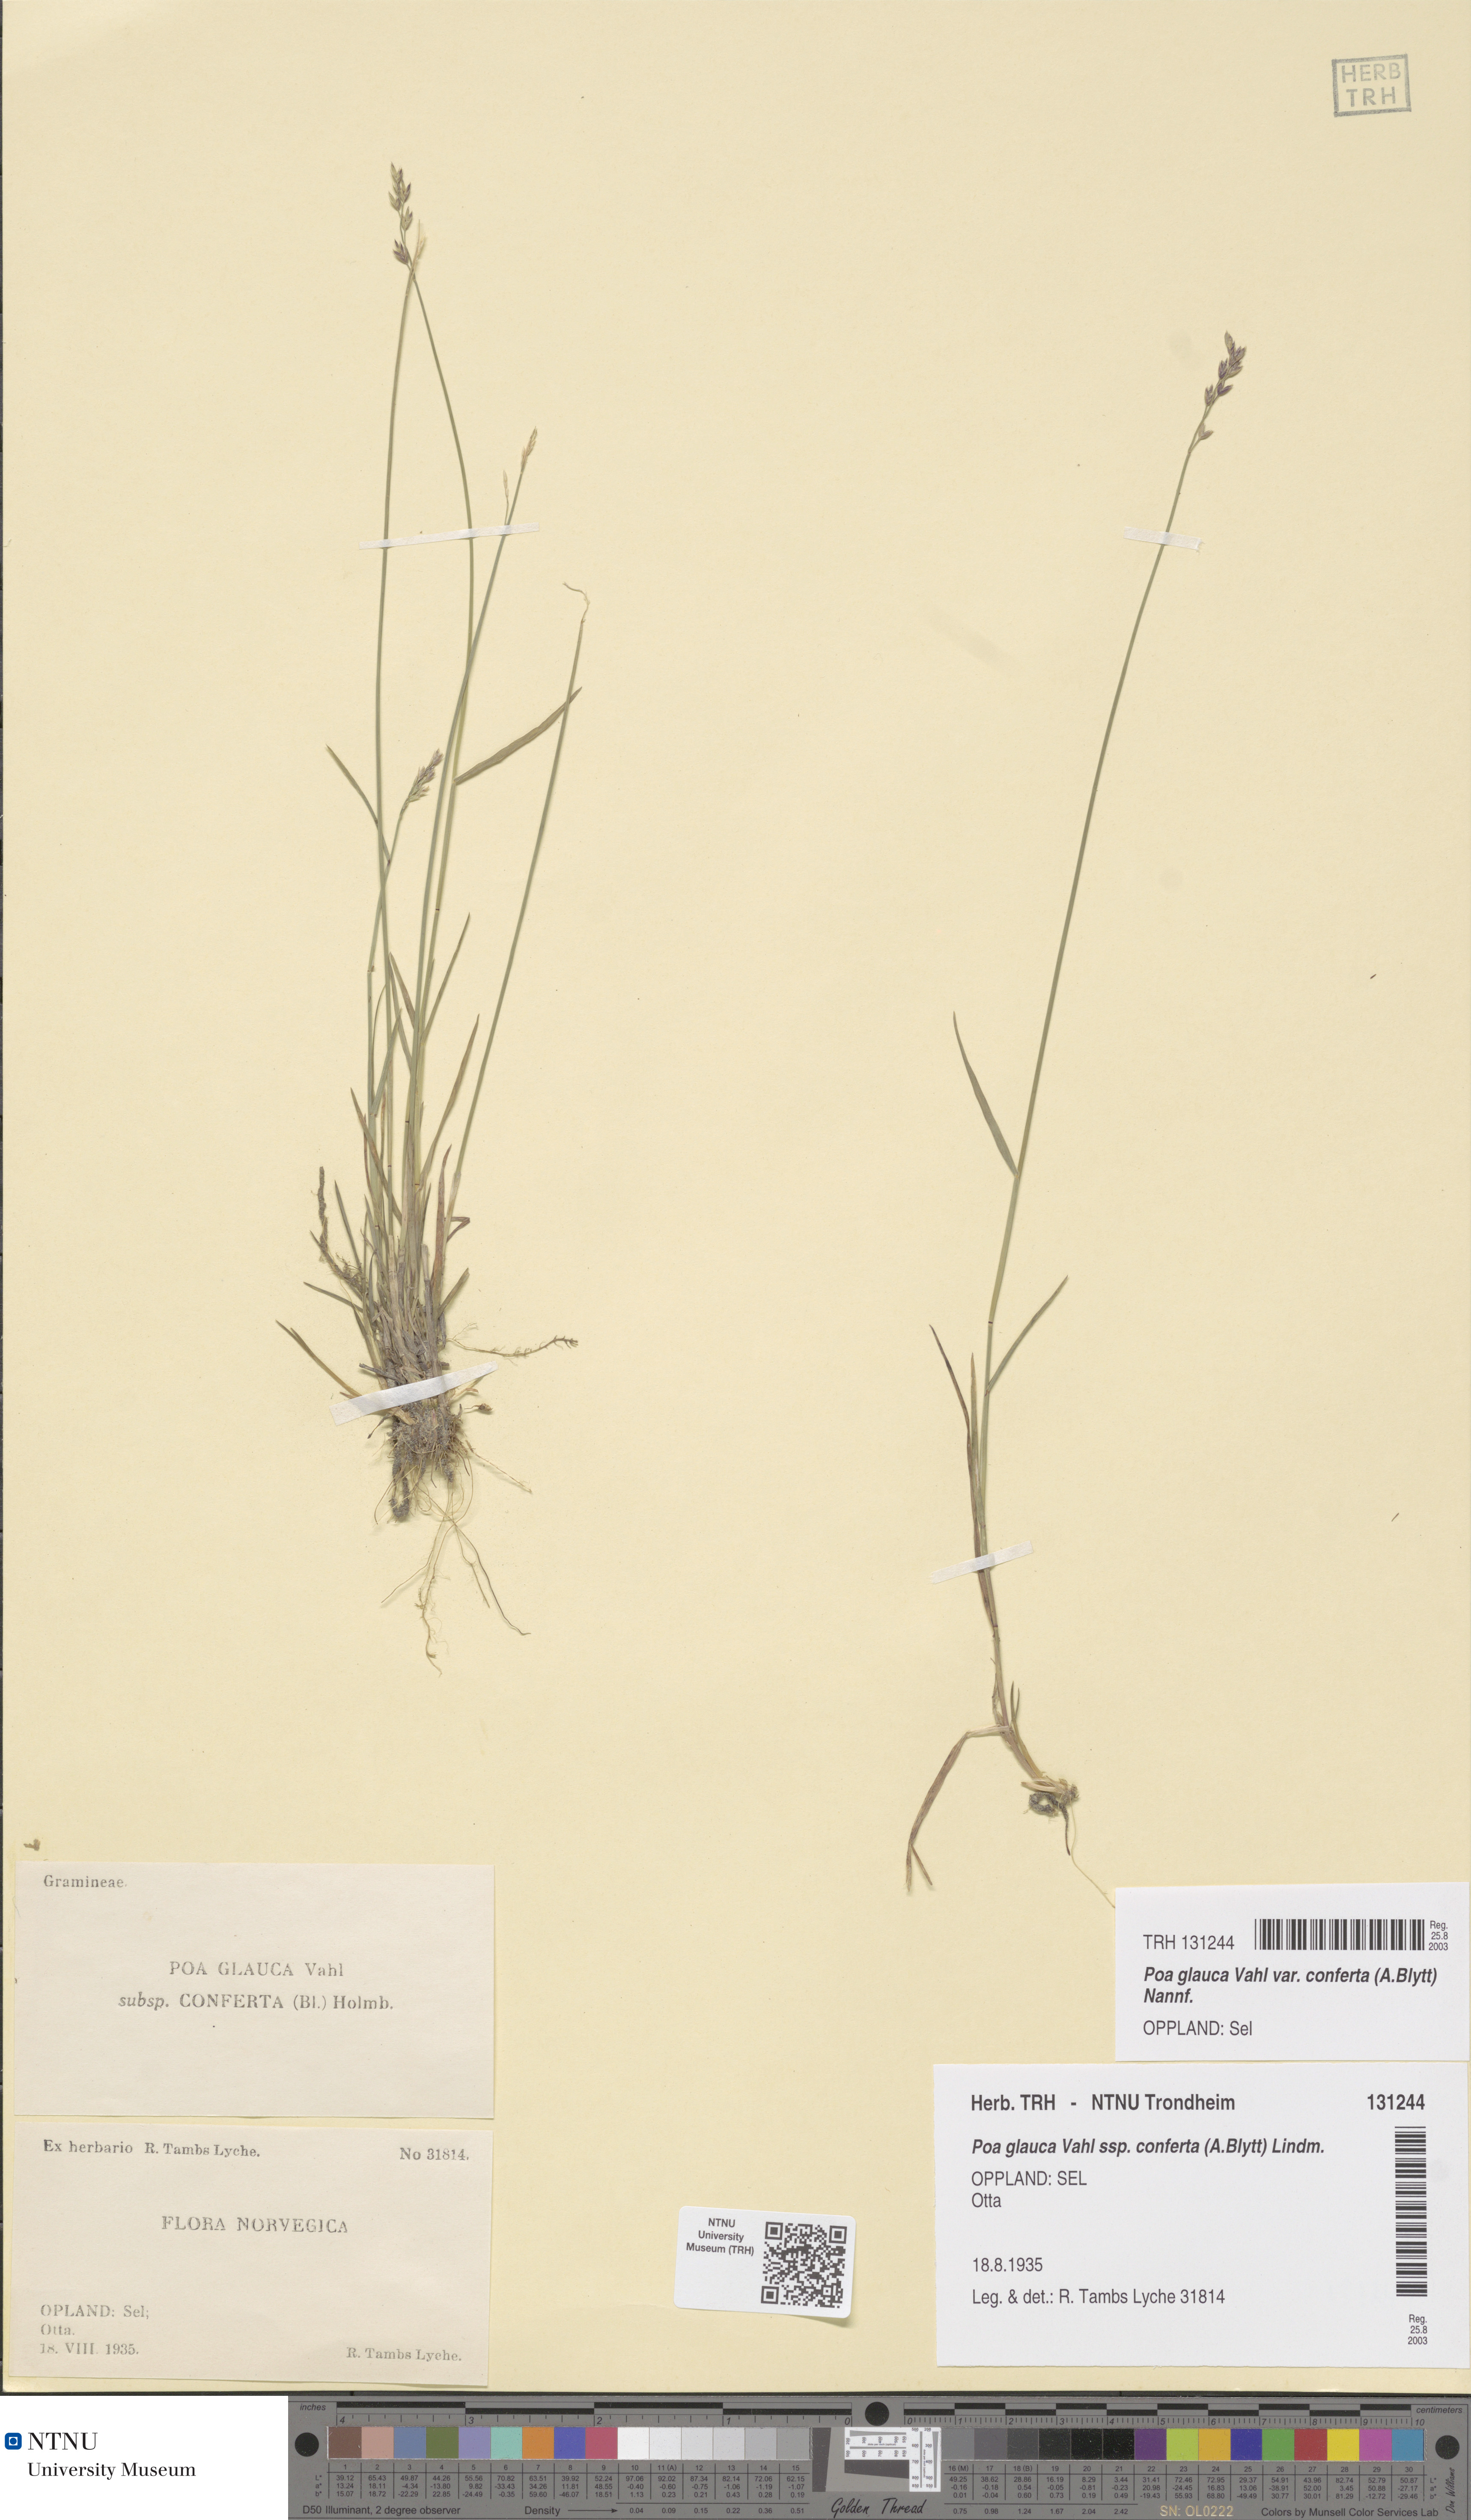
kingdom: Plantae
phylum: Tracheophyta
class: Liliopsida
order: Poales
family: Poaceae
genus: Poa
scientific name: Poa glauca
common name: Glaucous bluegrass
